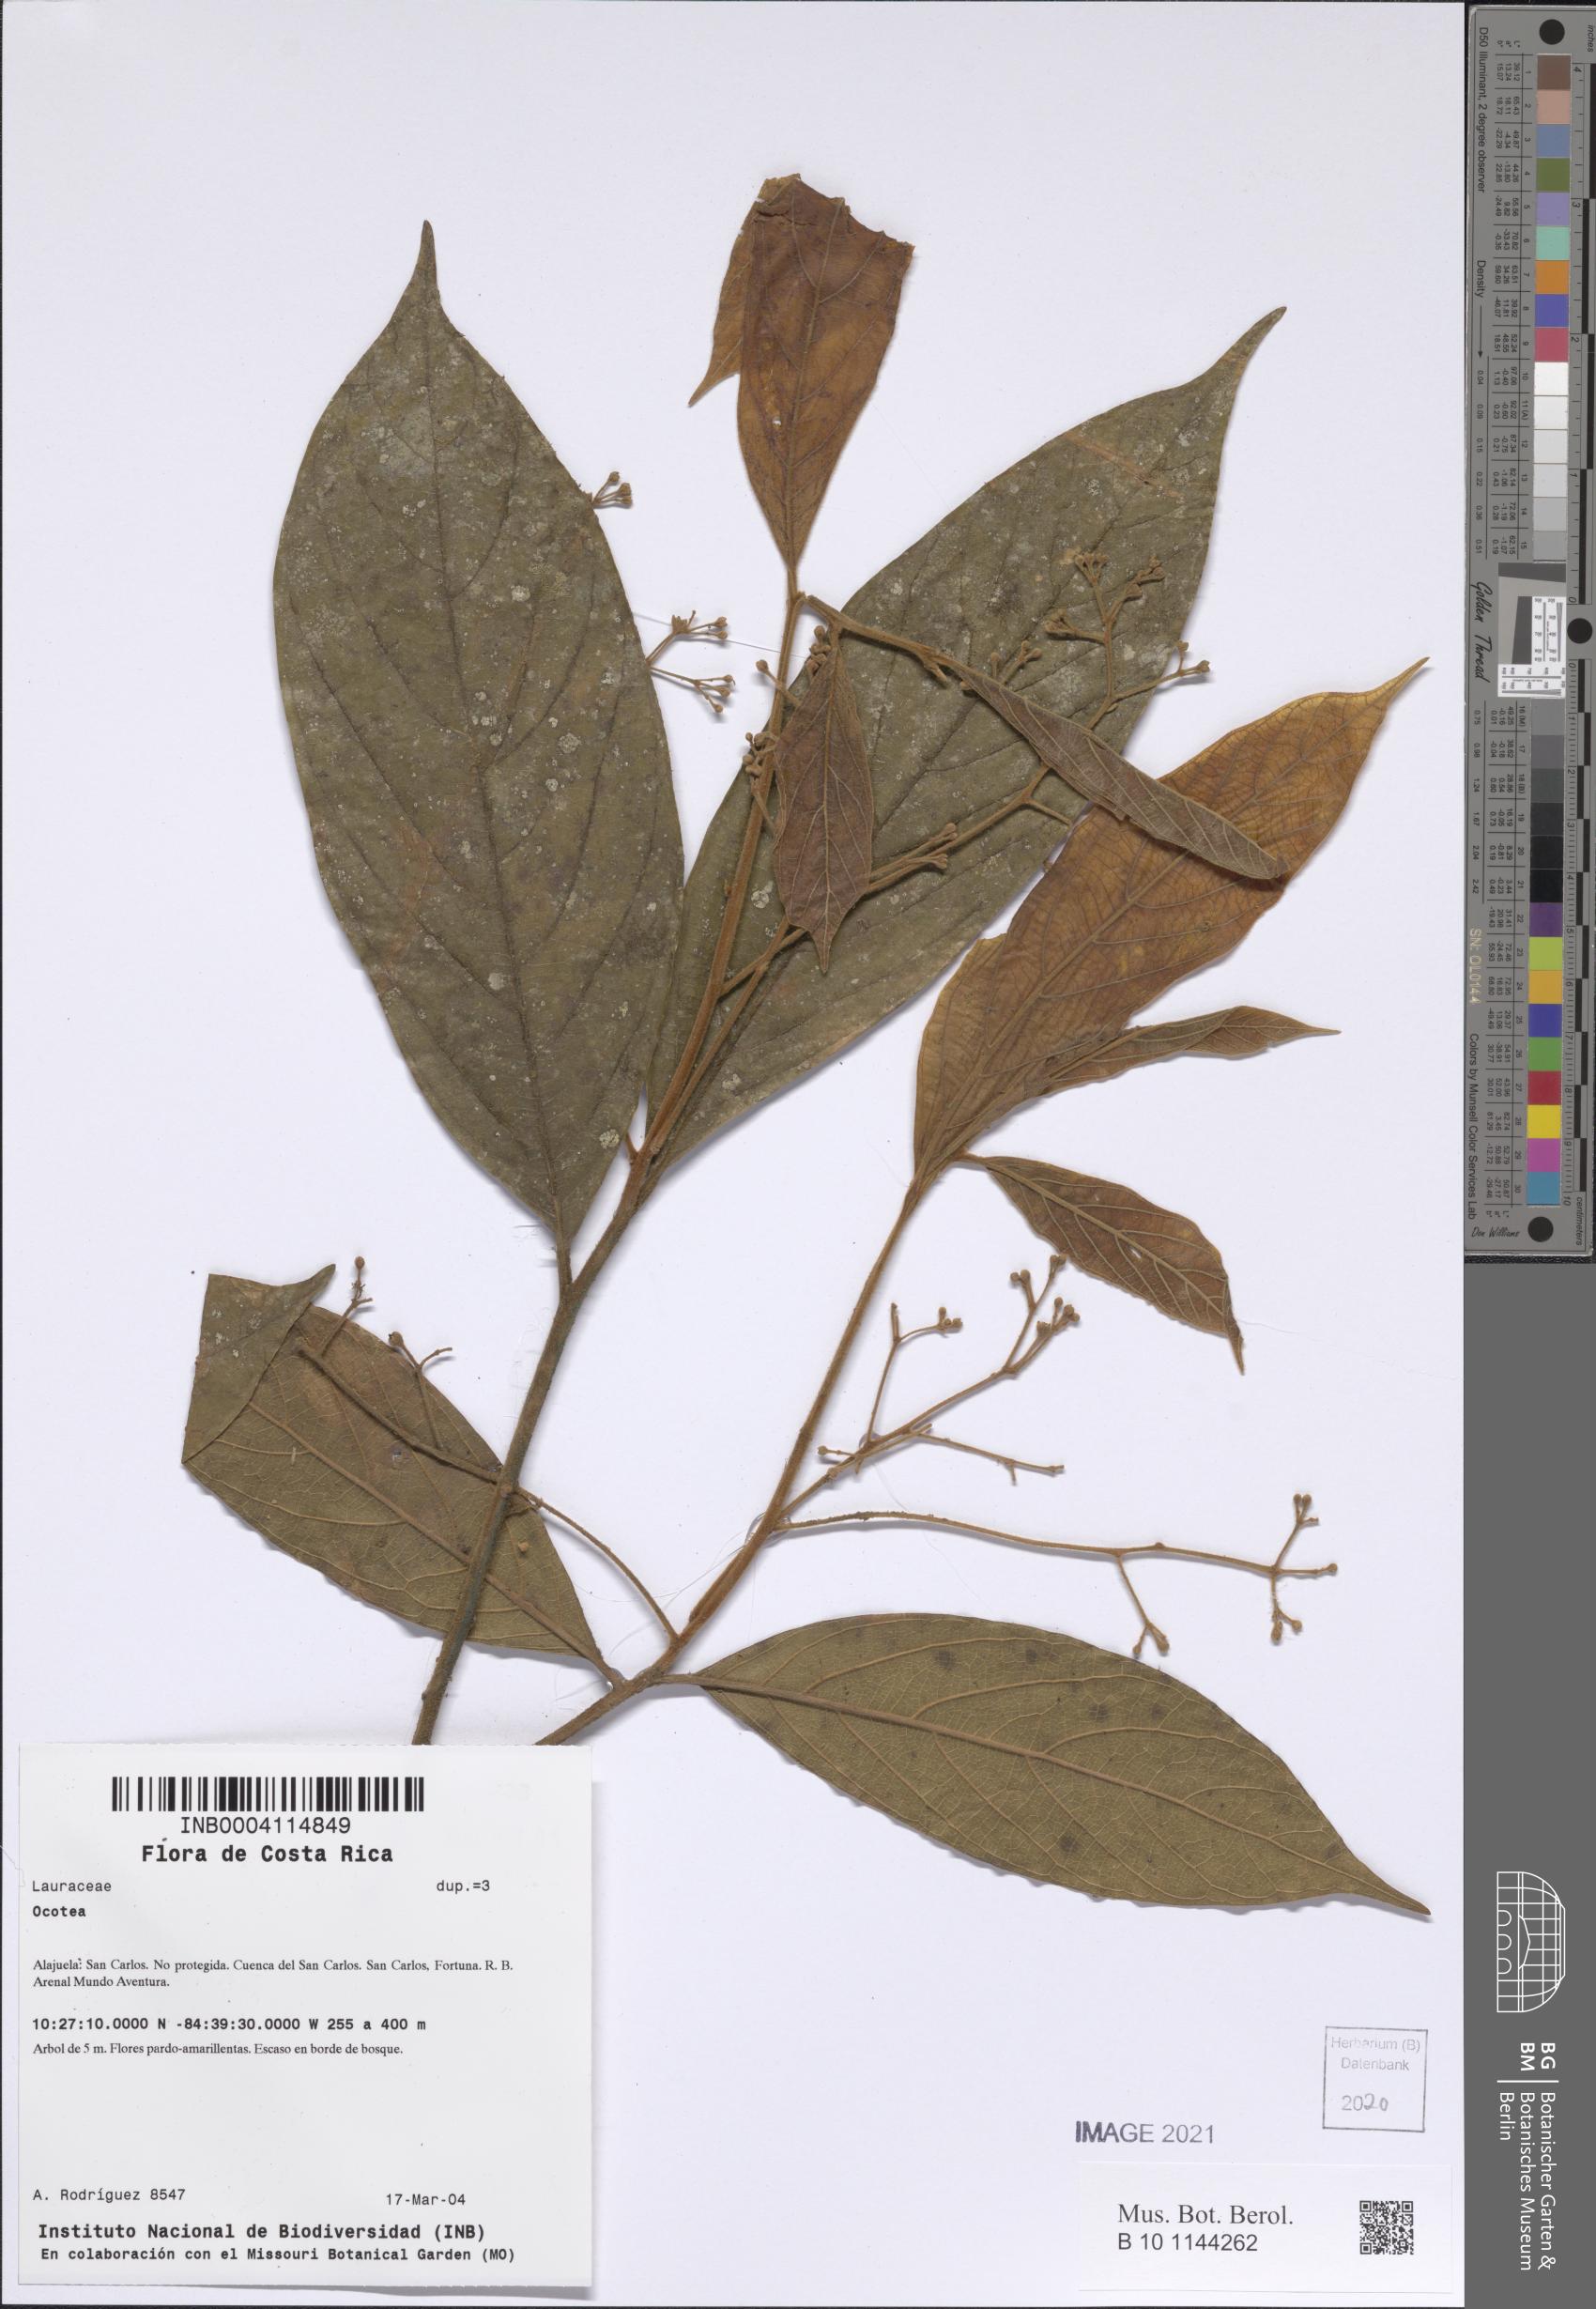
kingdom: Plantae
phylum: Tracheophyta
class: Magnoliopsida
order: Laurales
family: Lauraceae
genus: Ocotea
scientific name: Ocotea
